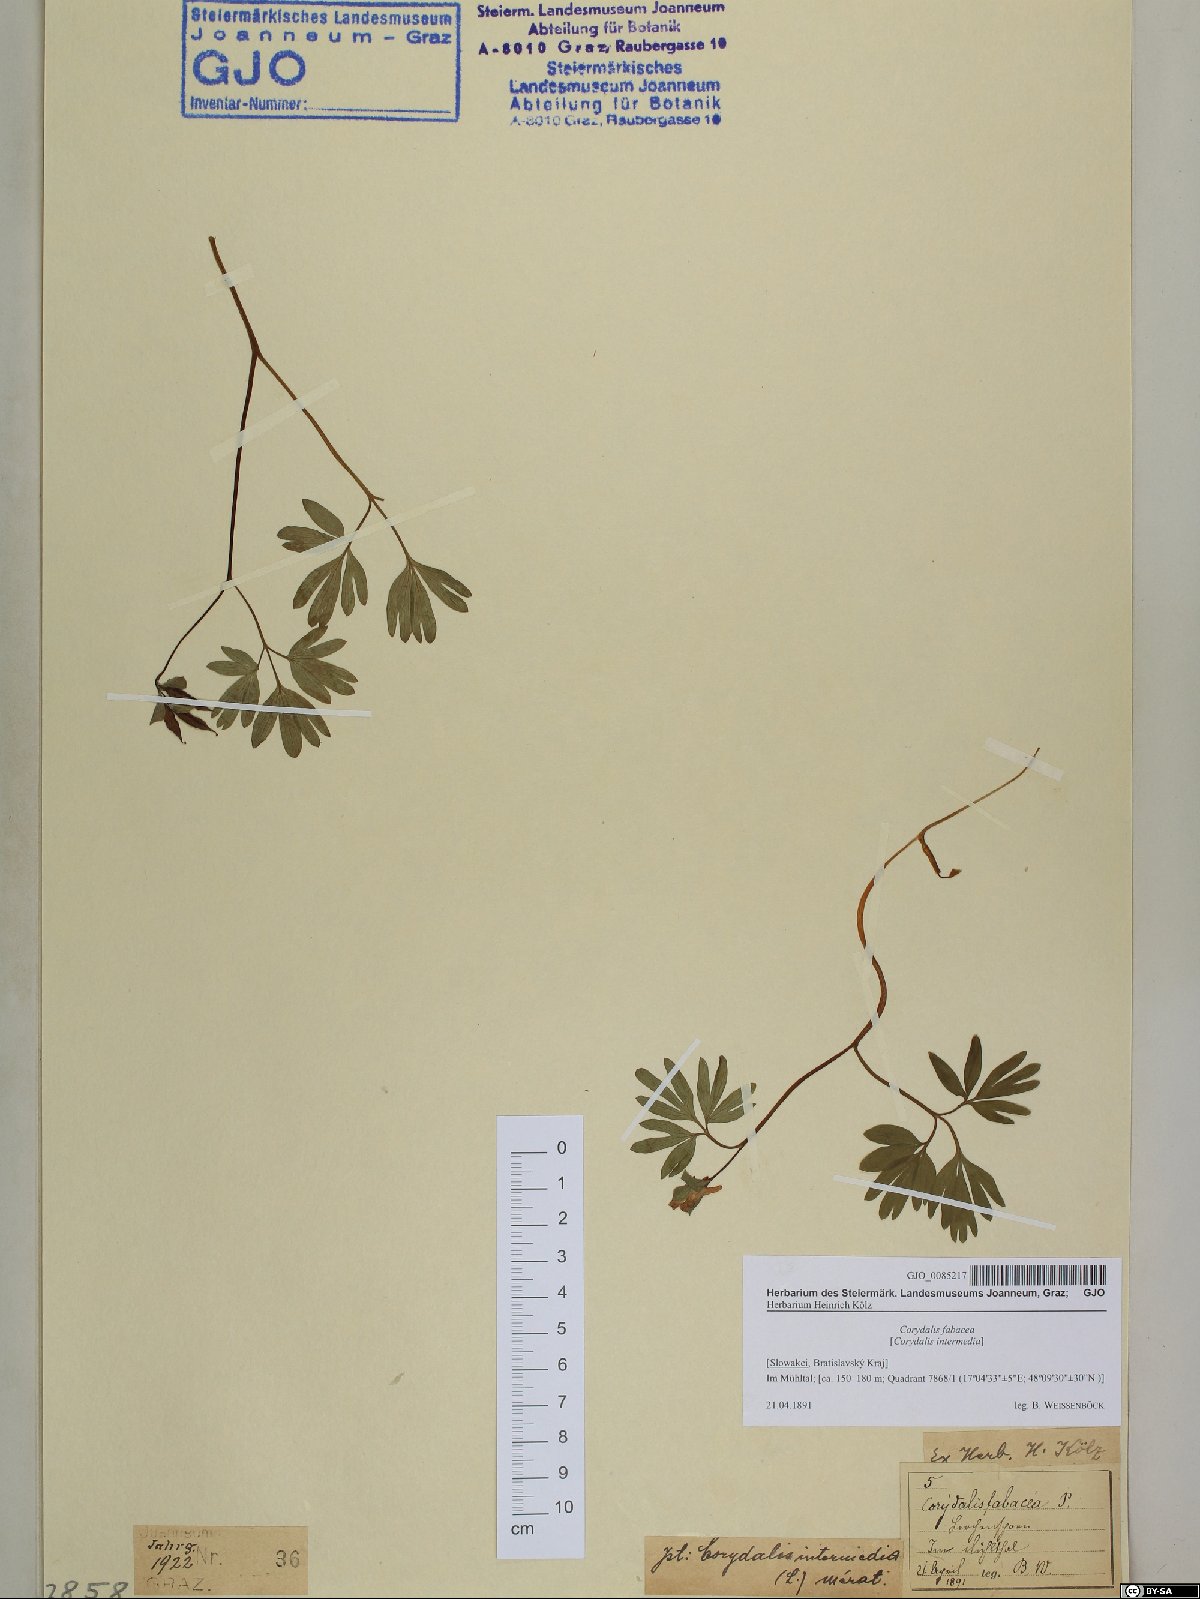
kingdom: Plantae
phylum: Tracheophyta
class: Magnoliopsida
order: Ranunculales
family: Papaveraceae
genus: Corydalis
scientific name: Corydalis intermedia
